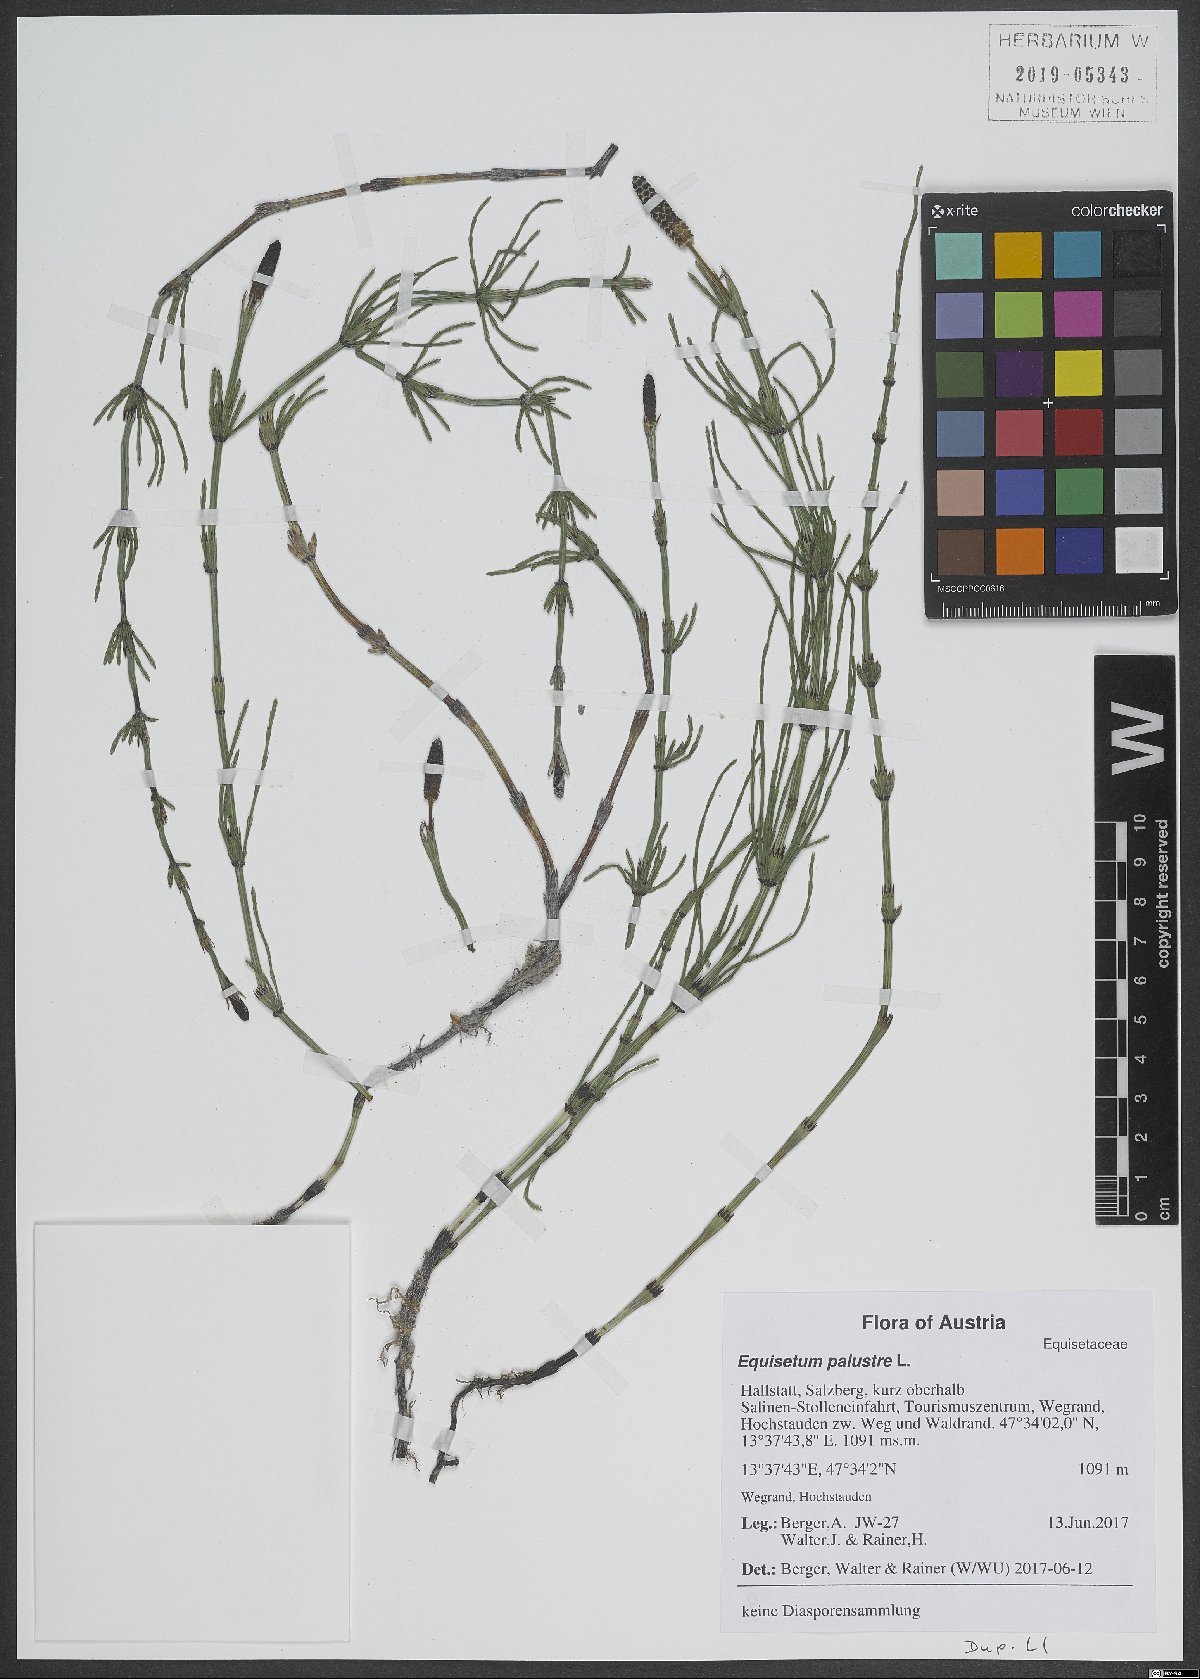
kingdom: Plantae
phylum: Tracheophyta
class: Polypodiopsida
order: Equisetales
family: Equisetaceae
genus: Equisetum
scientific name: Equisetum palustre
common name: Marsh horsetail
